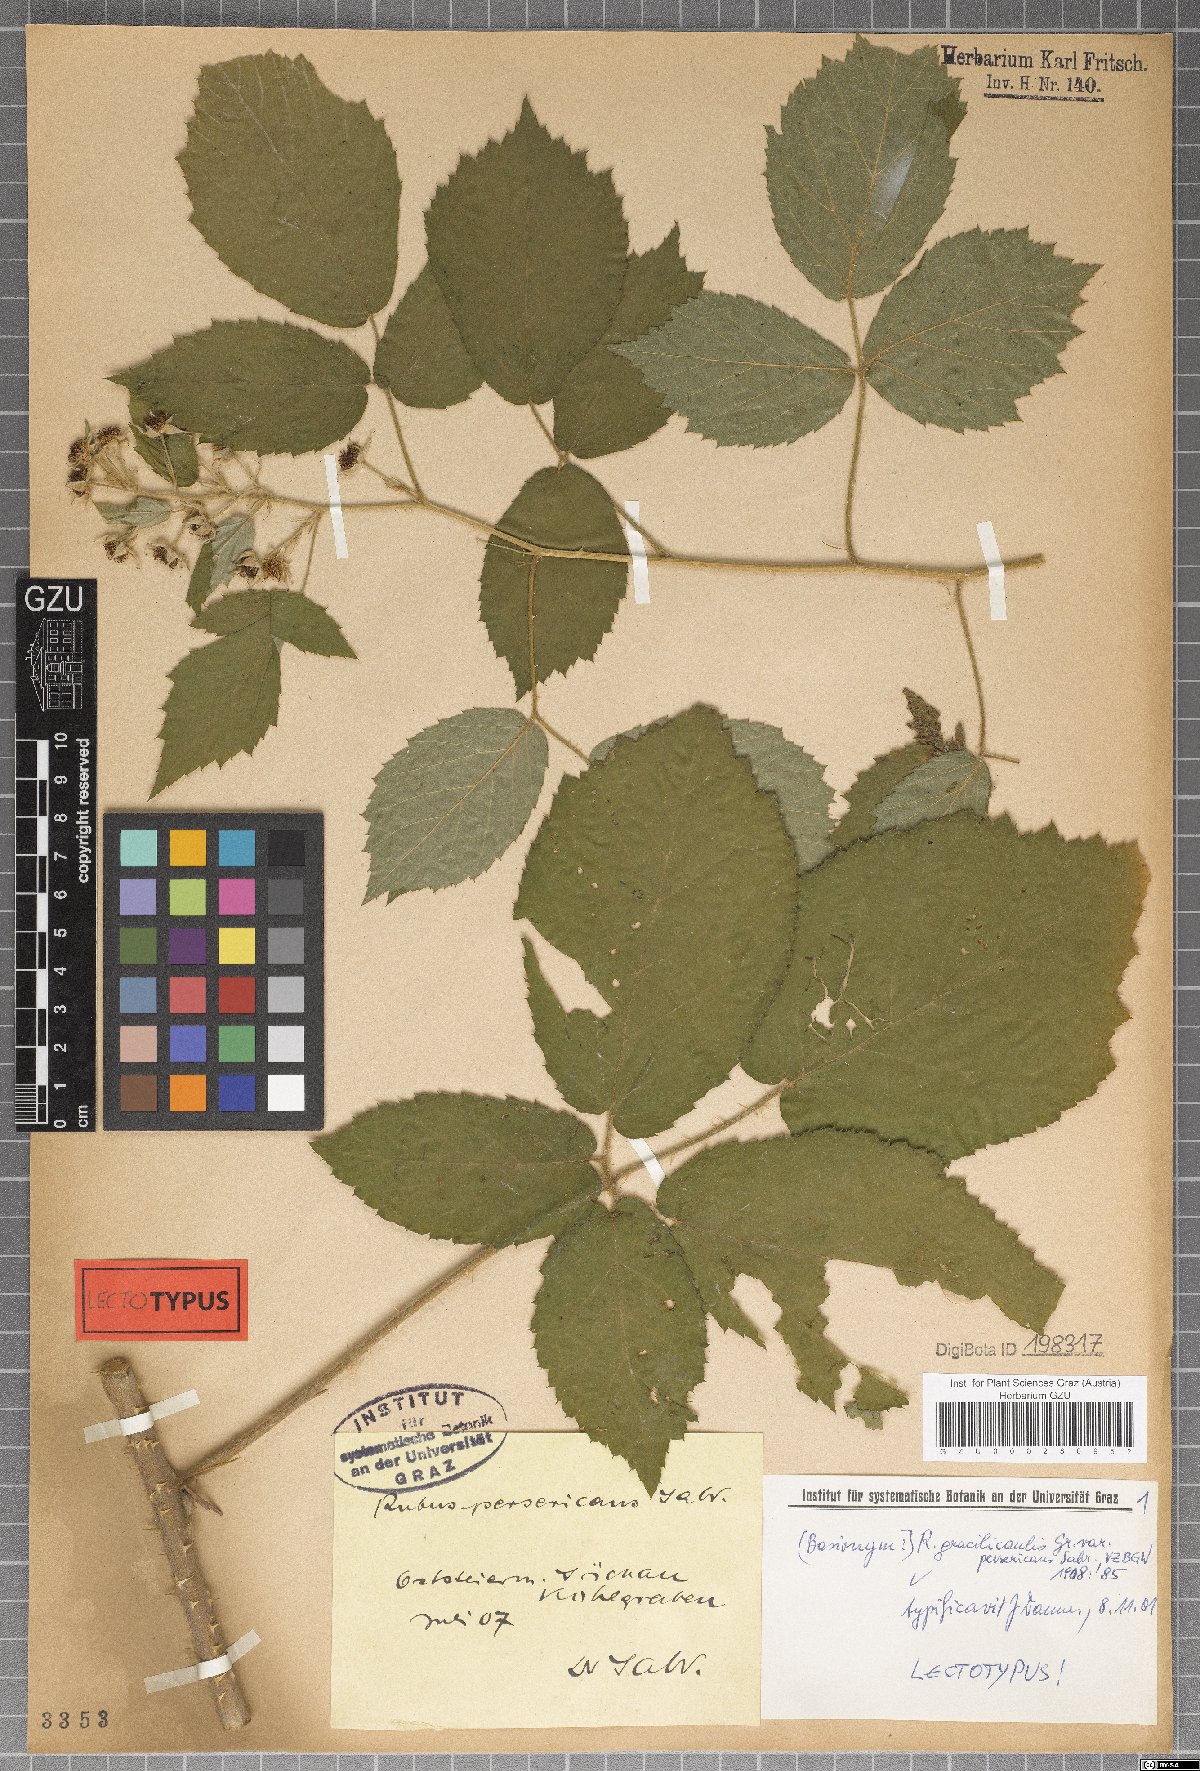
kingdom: Plantae
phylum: Tracheophyta
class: Magnoliopsida
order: Rosales
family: Rosaceae
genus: Rubus
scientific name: Rubus persericans
